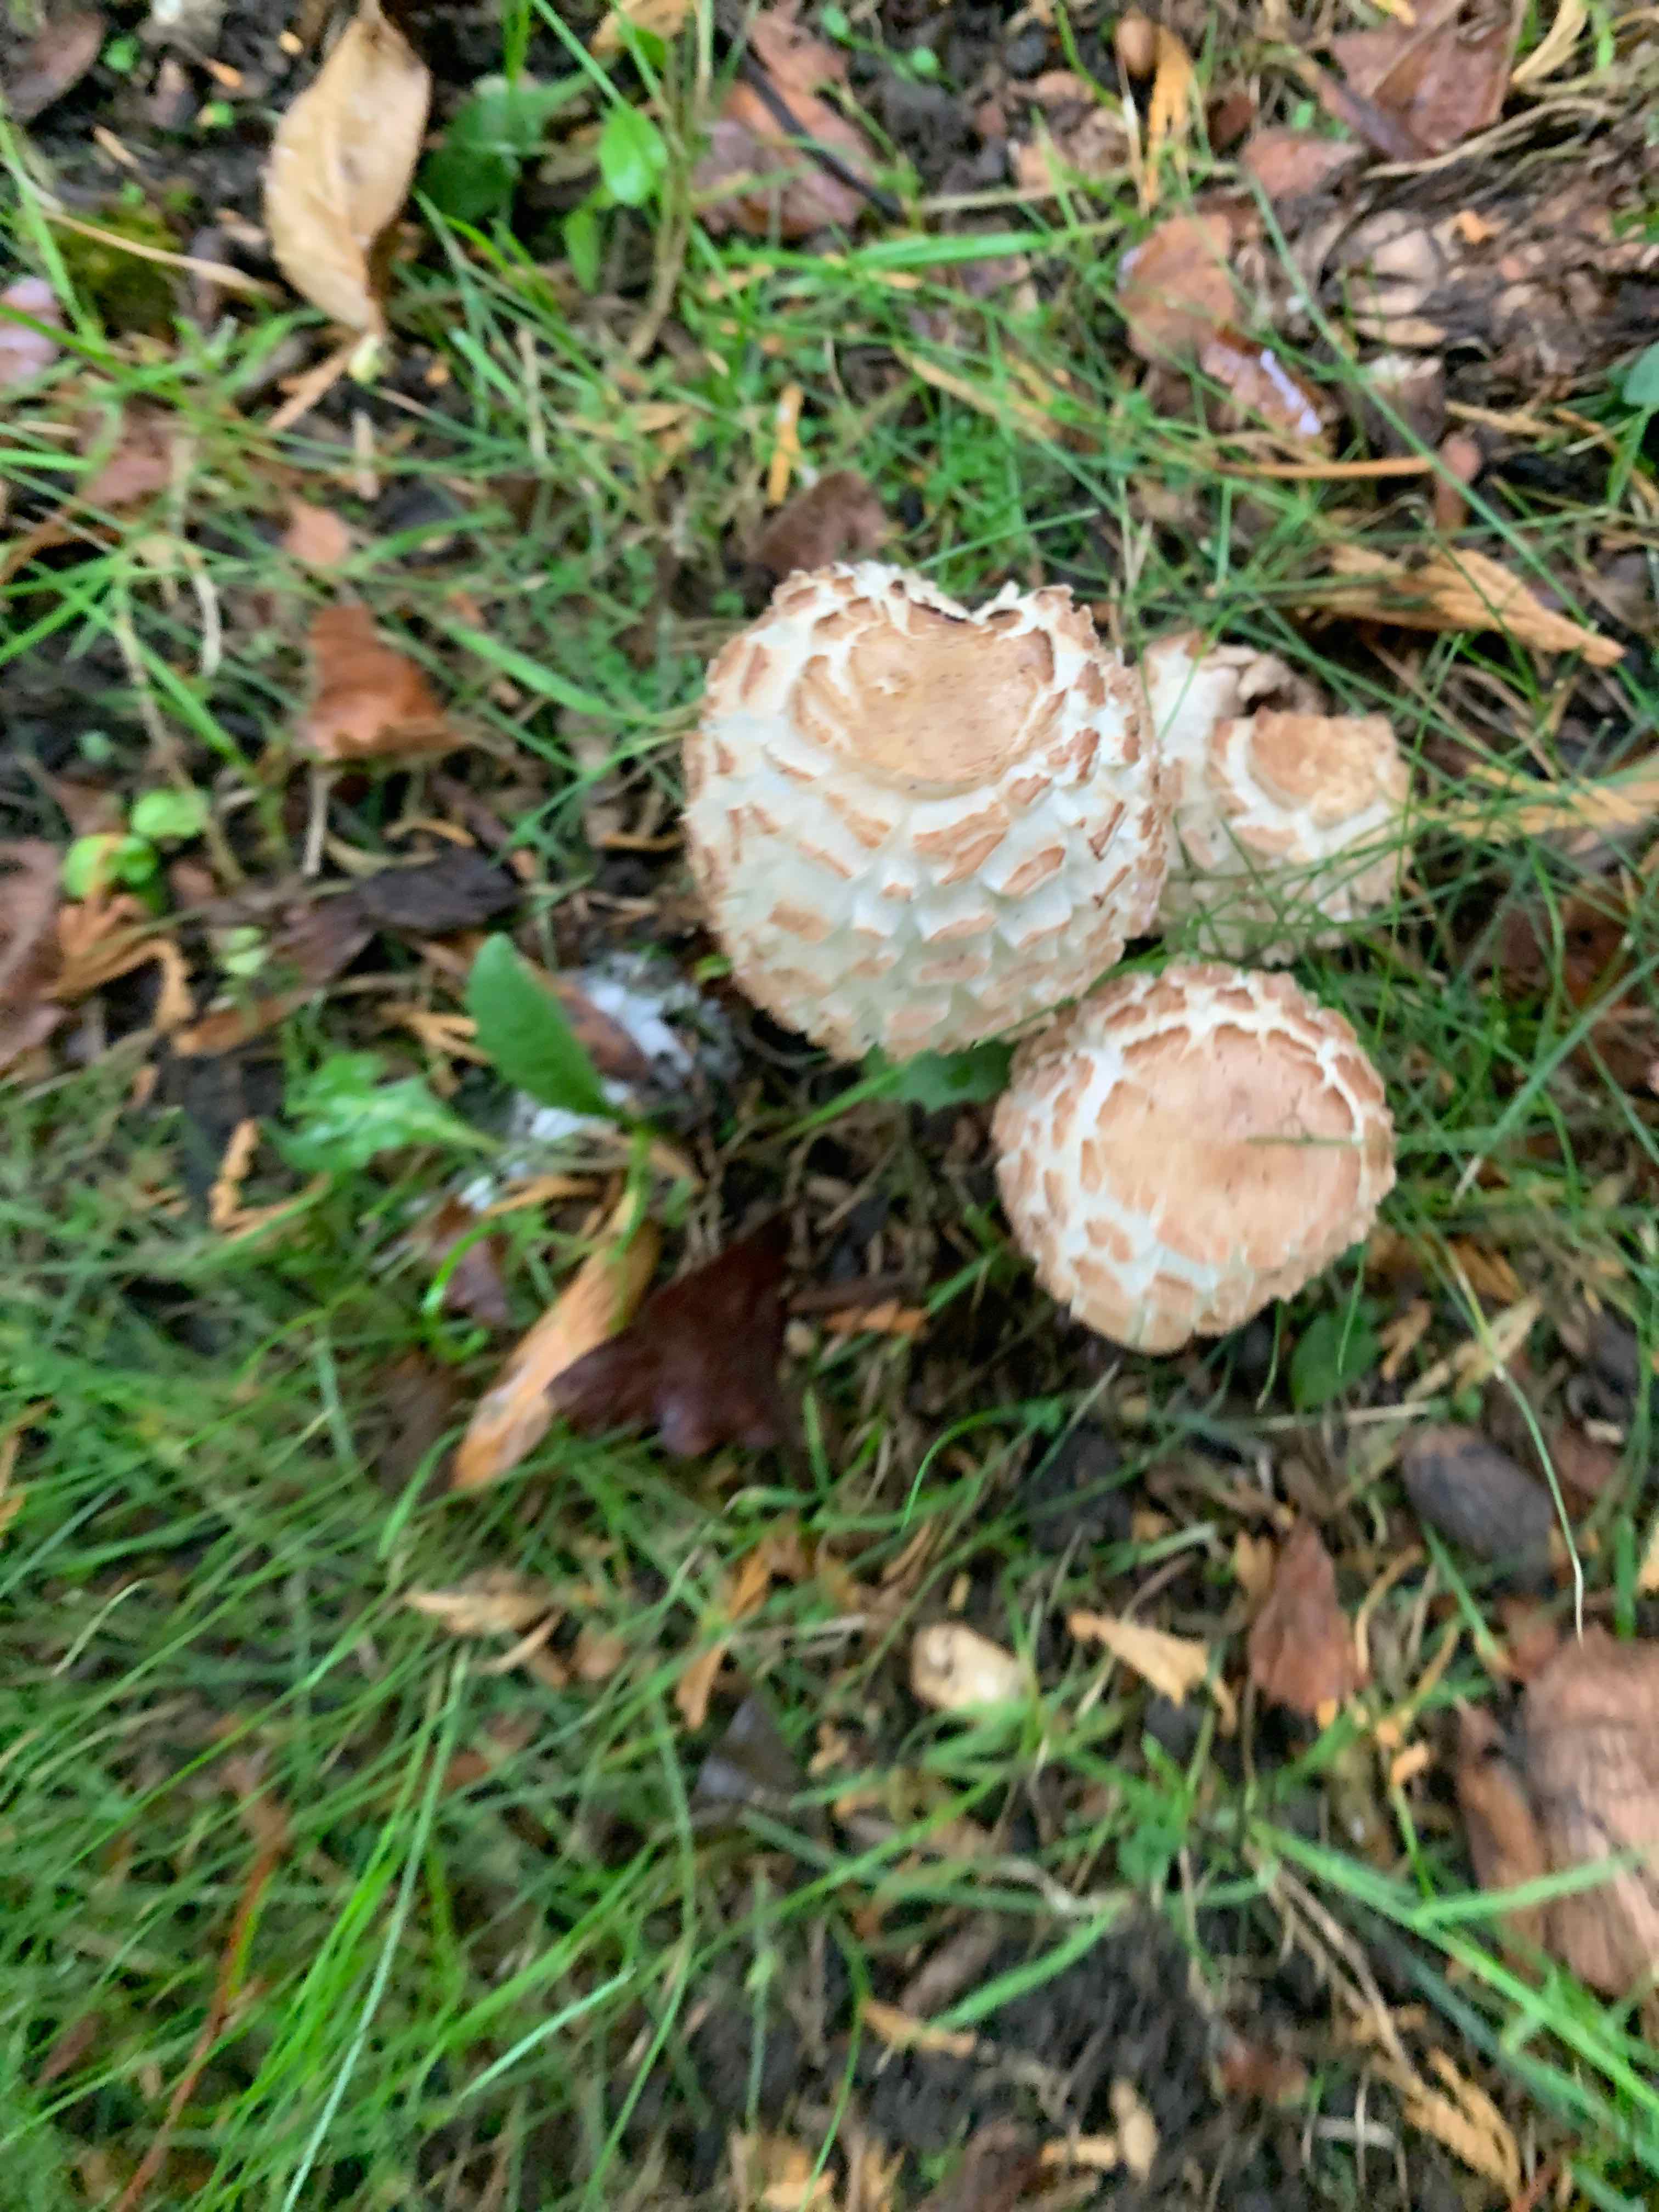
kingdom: Fungi
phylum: Basidiomycota
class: Agaricomycetes
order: Agaricales
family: Agaricaceae
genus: Chlorophyllum
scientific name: Chlorophyllum
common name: rabarberhat
